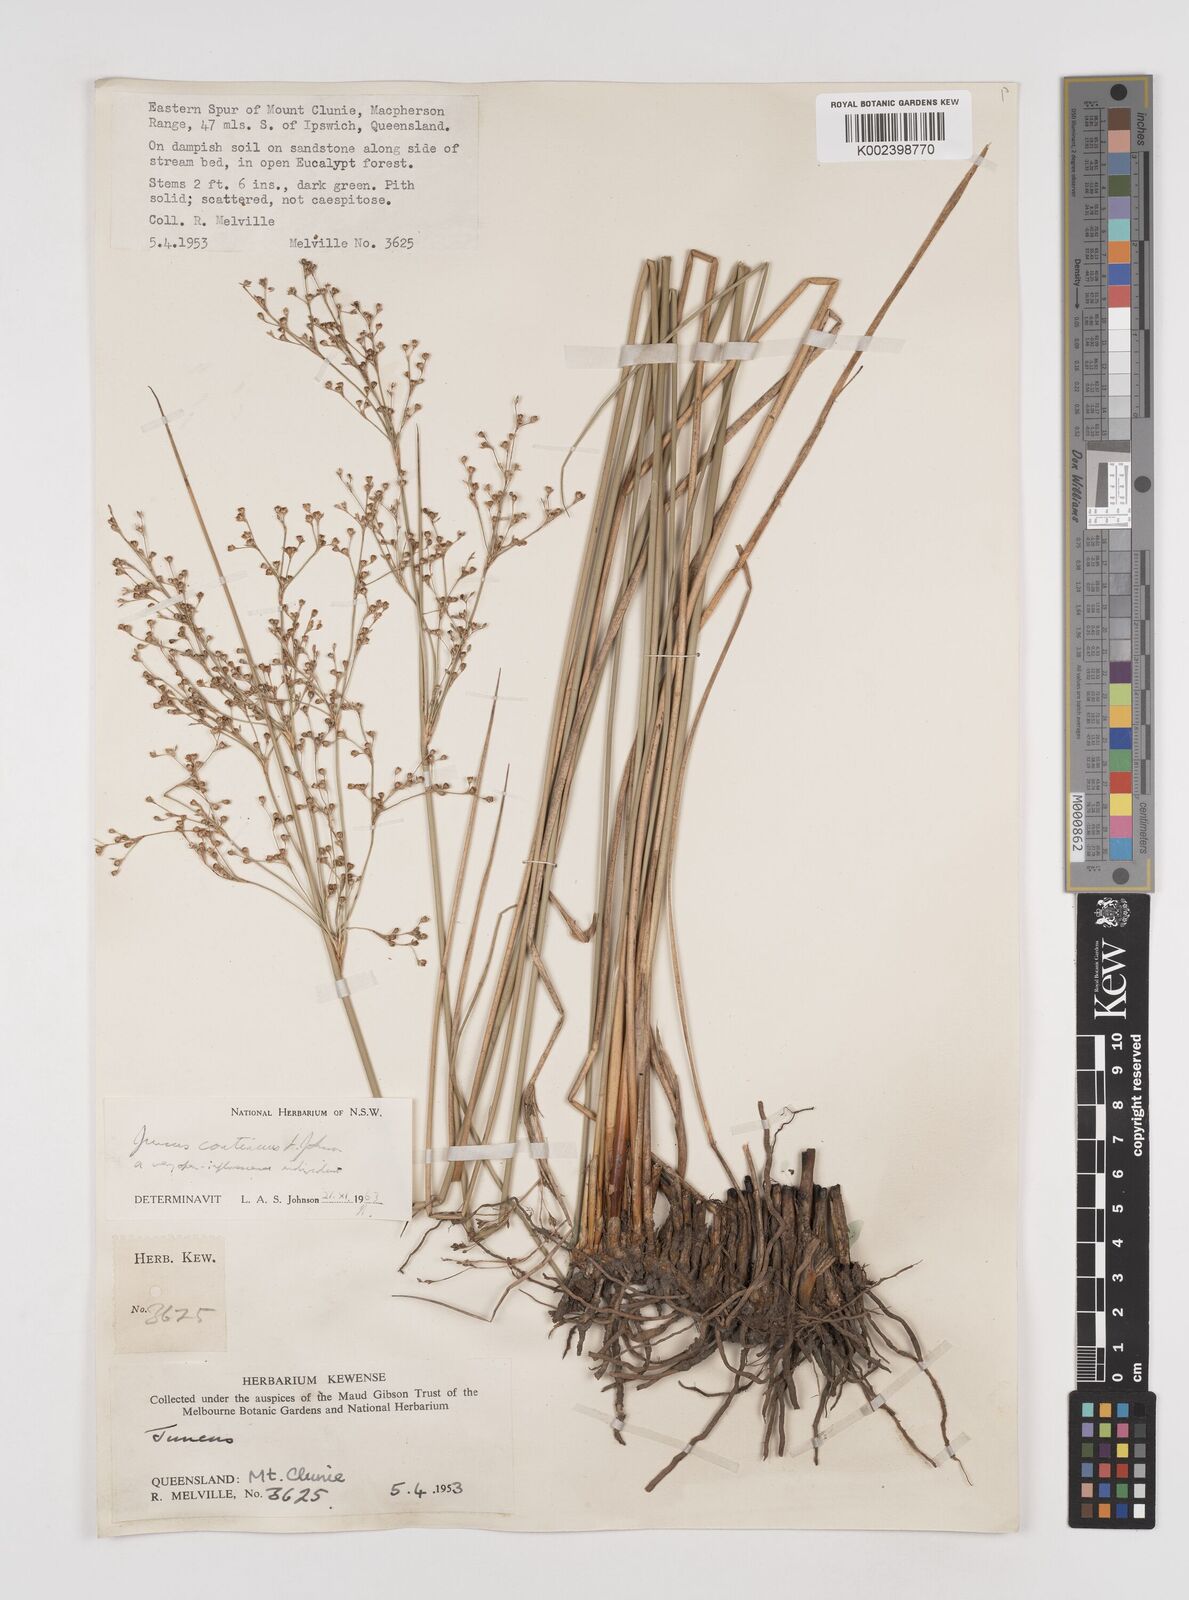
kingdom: Plantae
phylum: Tracheophyta
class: Liliopsida
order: Poales
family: Juncaceae
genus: Juncus
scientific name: Juncus continuus
